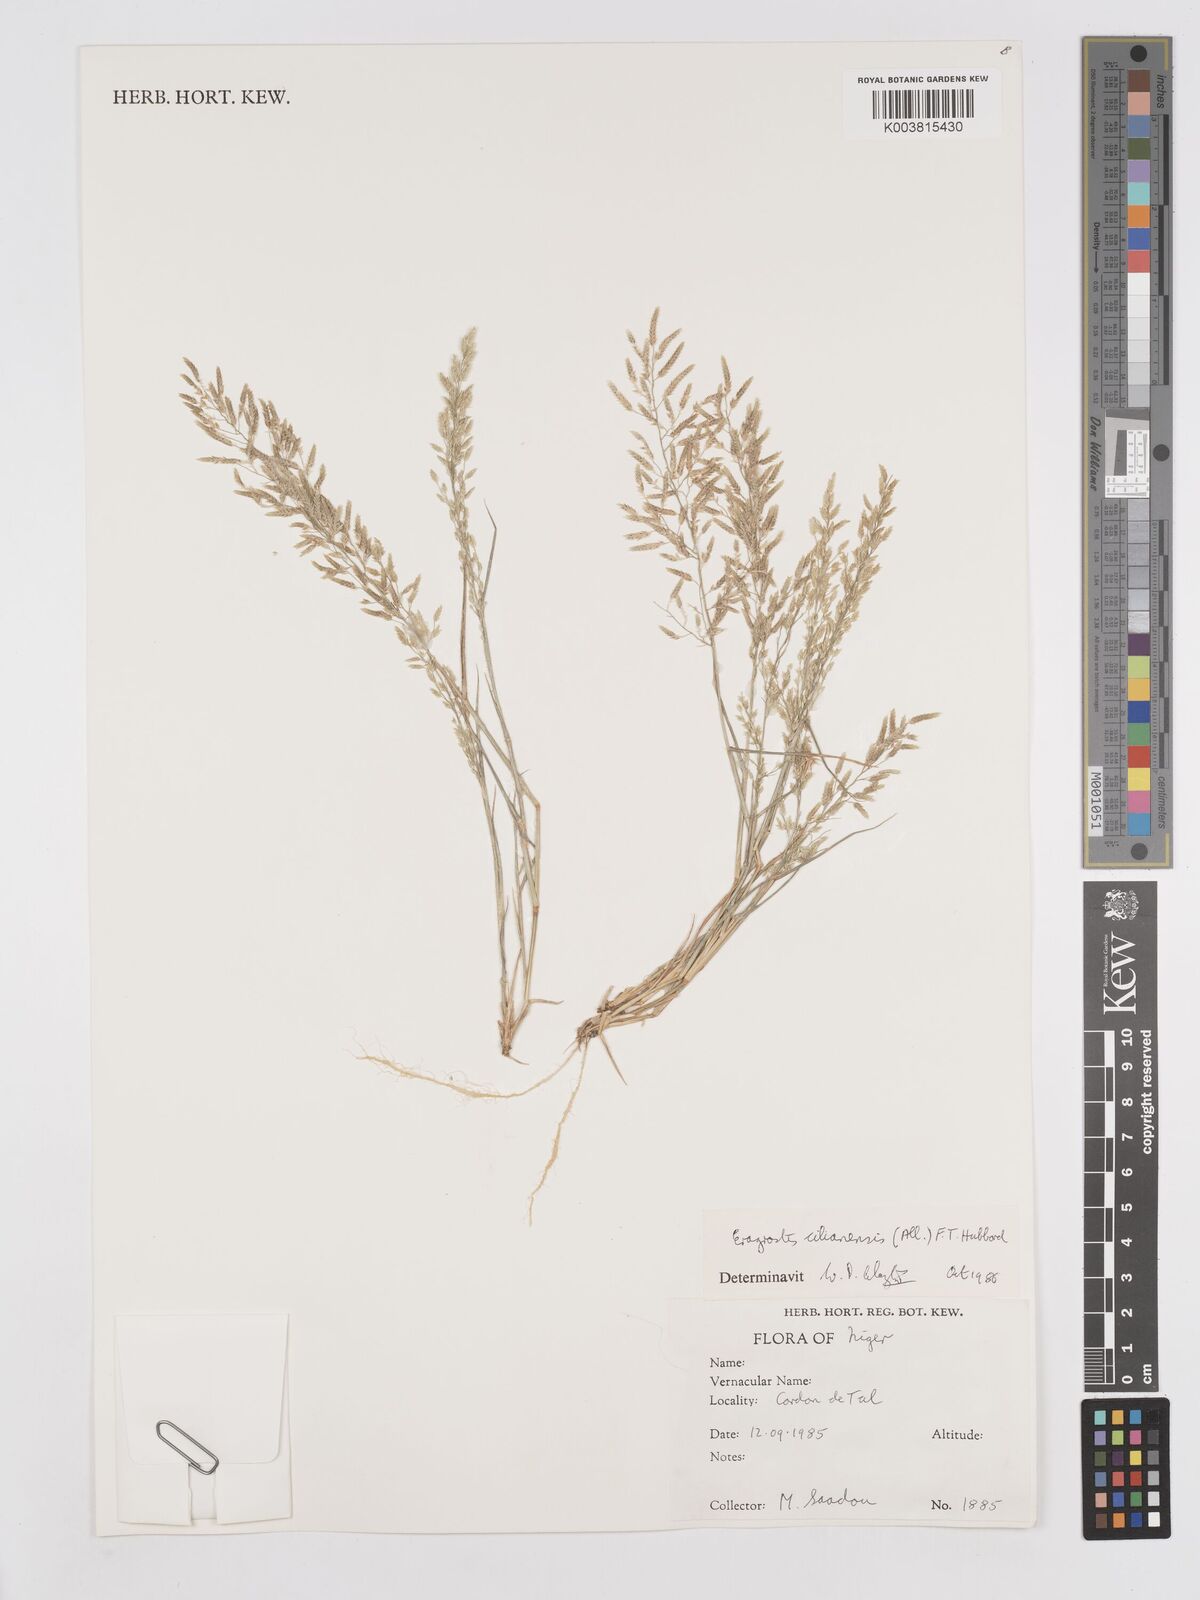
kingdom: Plantae
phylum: Tracheophyta
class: Liliopsida
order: Poales
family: Poaceae
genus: Eragrostis
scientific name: Eragrostis cilianensis
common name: Stinkgrass
